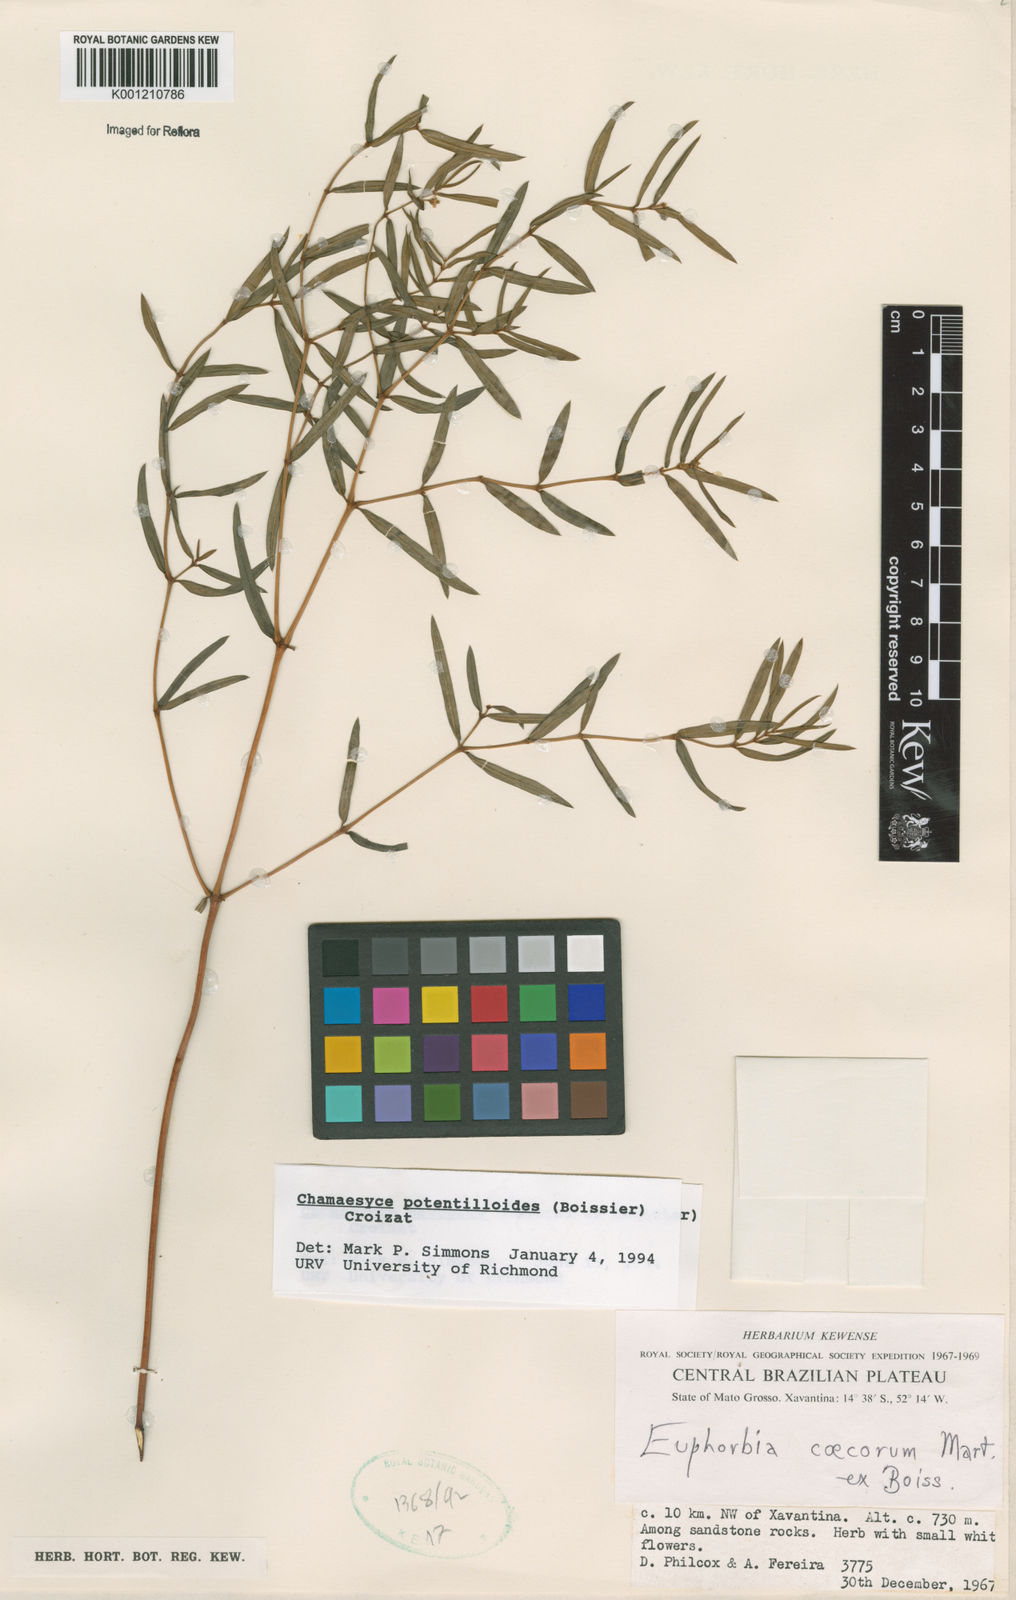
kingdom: Plantae
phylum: Tracheophyta
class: Magnoliopsida
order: Malpighiales
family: Euphorbiaceae
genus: Euphorbia
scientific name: Euphorbia potentilloides
